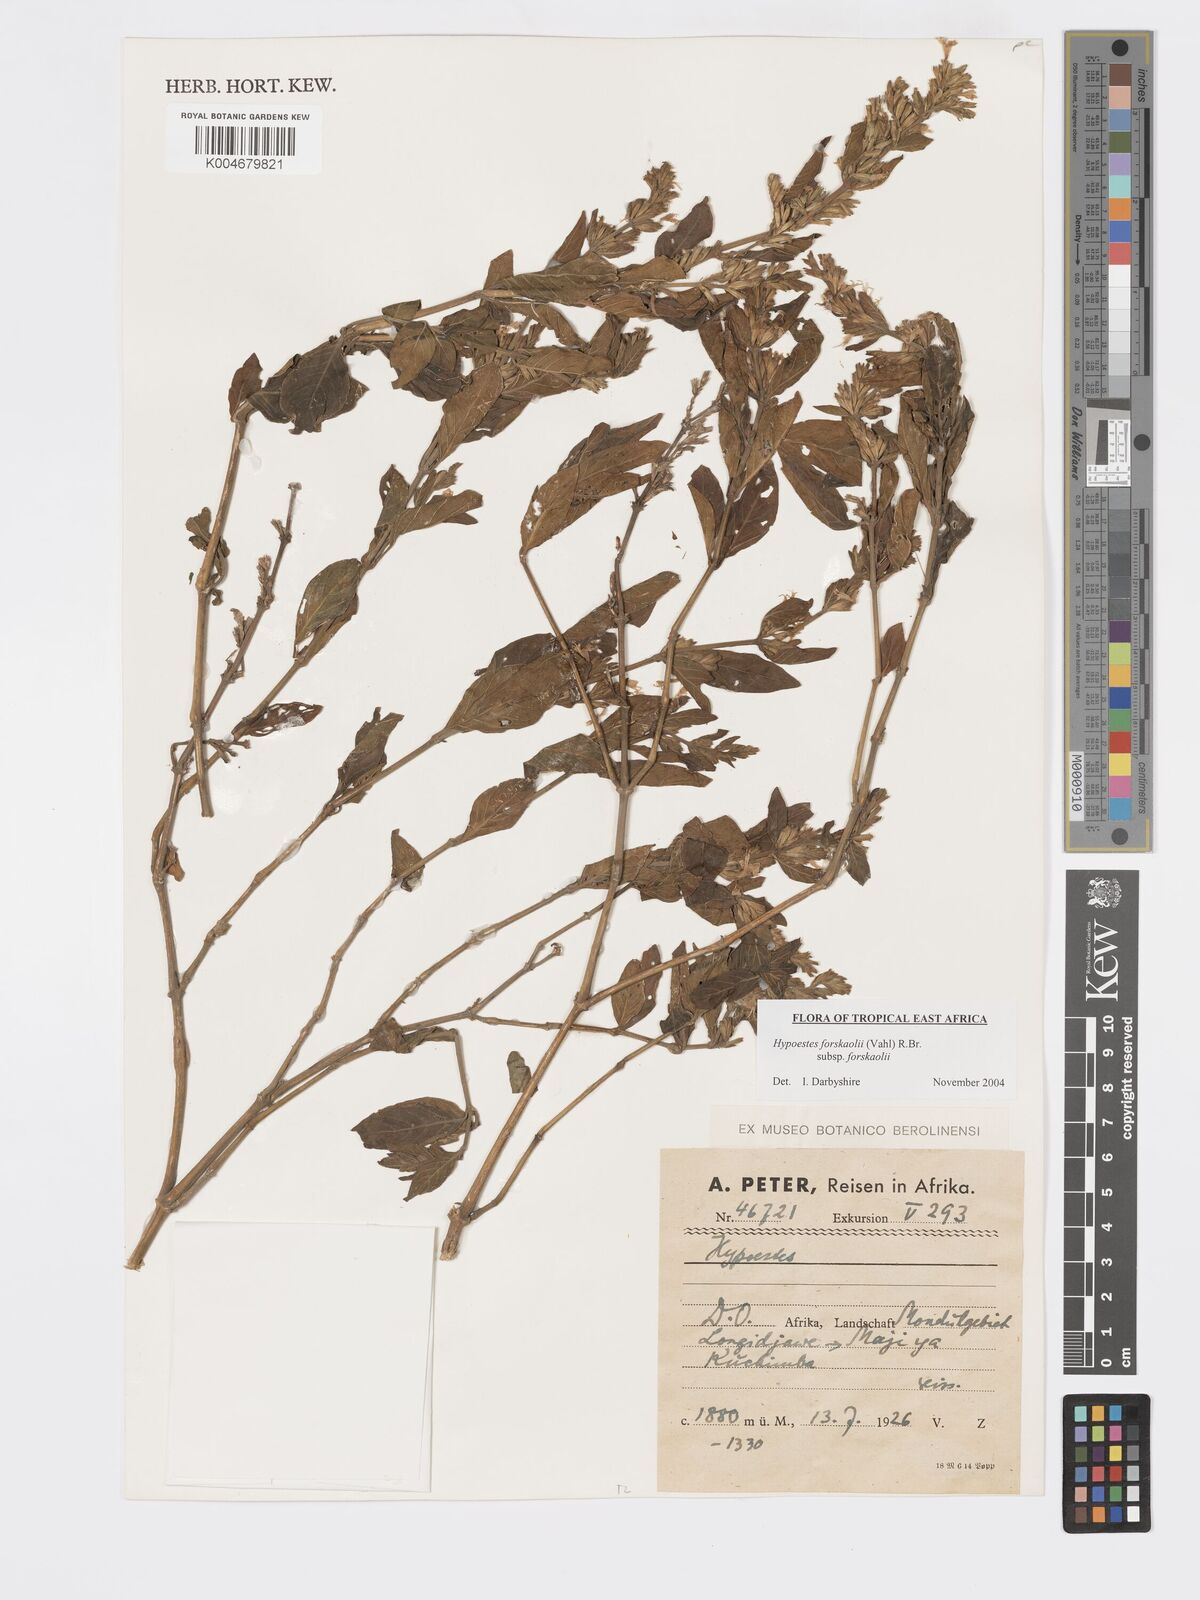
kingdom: Plantae
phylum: Tracheophyta
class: Magnoliopsida
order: Lamiales
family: Acanthaceae
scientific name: Acanthaceae
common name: Acanthaceae
